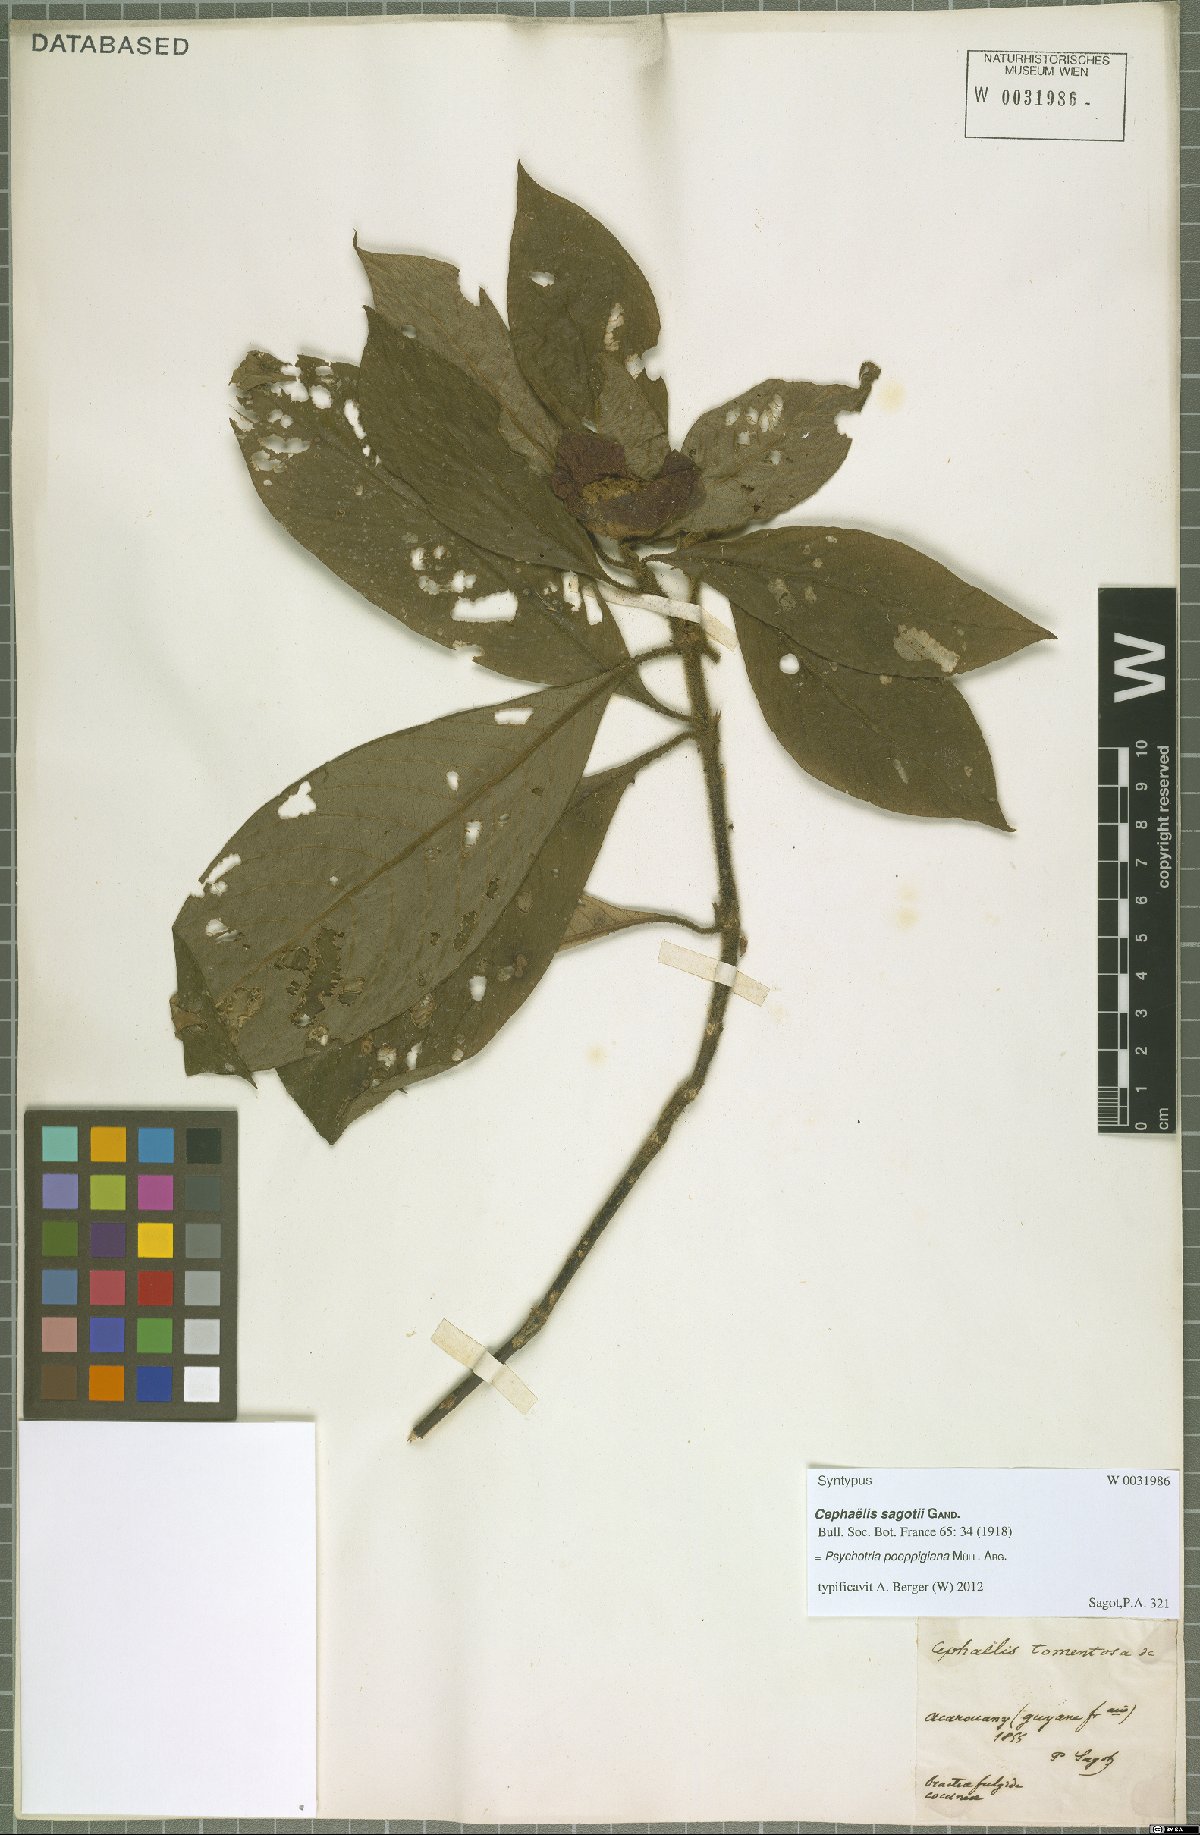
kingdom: Plantae
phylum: Tracheophyta
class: Magnoliopsida
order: Gentianales
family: Rubiaceae
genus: Palicourea
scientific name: Palicourea tomentosa
